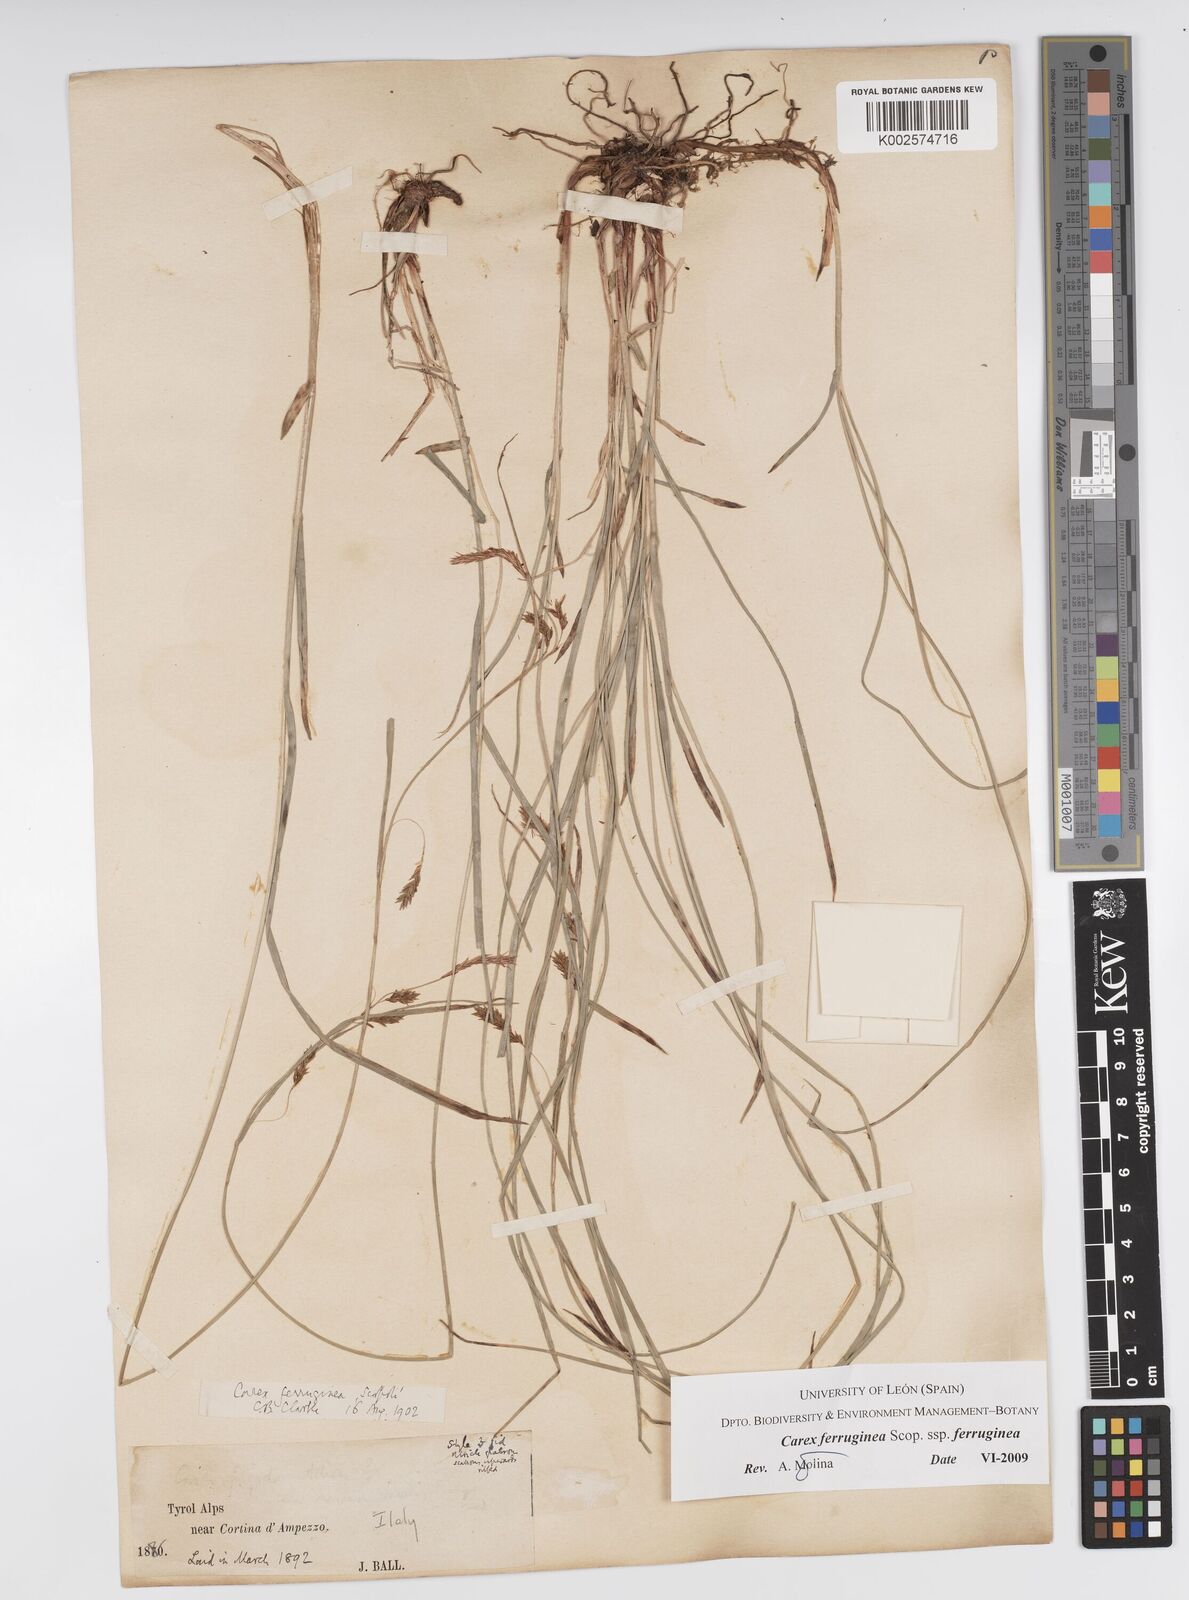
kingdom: Plantae
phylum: Tracheophyta
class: Liliopsida
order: Poales
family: Cyperaceae
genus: Carex
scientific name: Carex ferruginea
